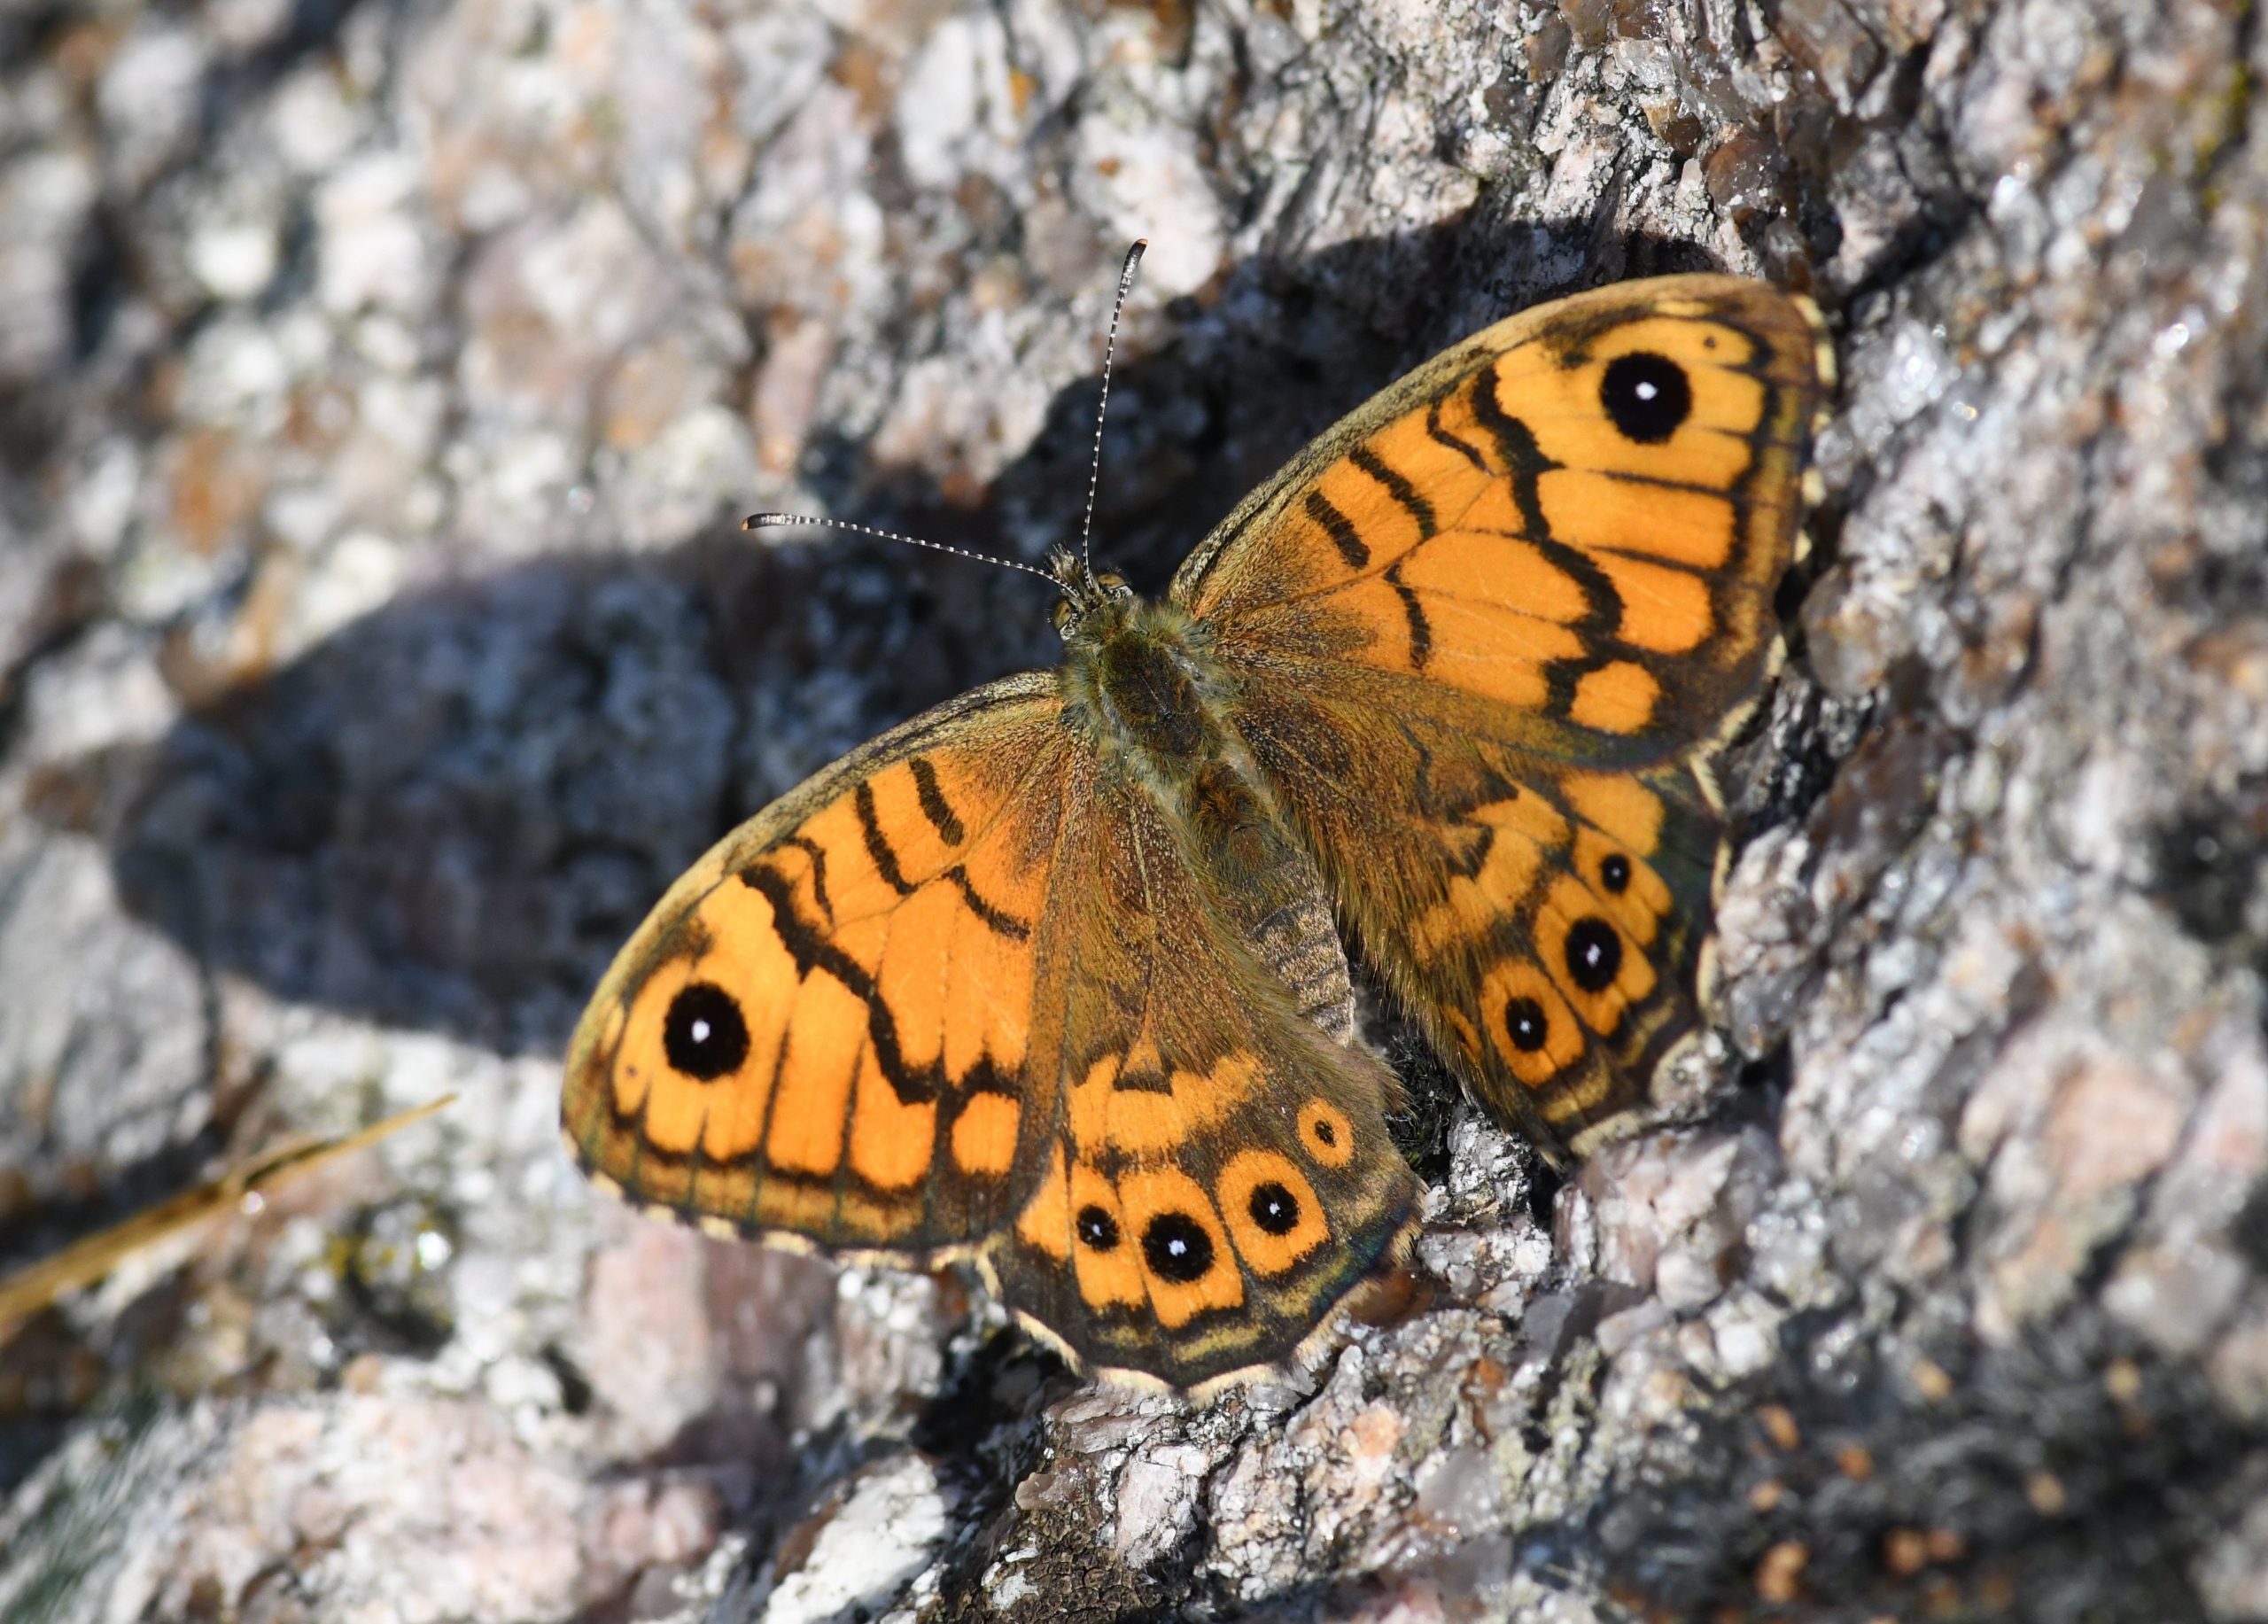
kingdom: Animalia
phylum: Arthropoda
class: Insecta
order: Lepidoptera
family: Nymphalidae
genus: Pararge
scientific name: Pararge Lasiommata megera
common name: Vejrandøje
